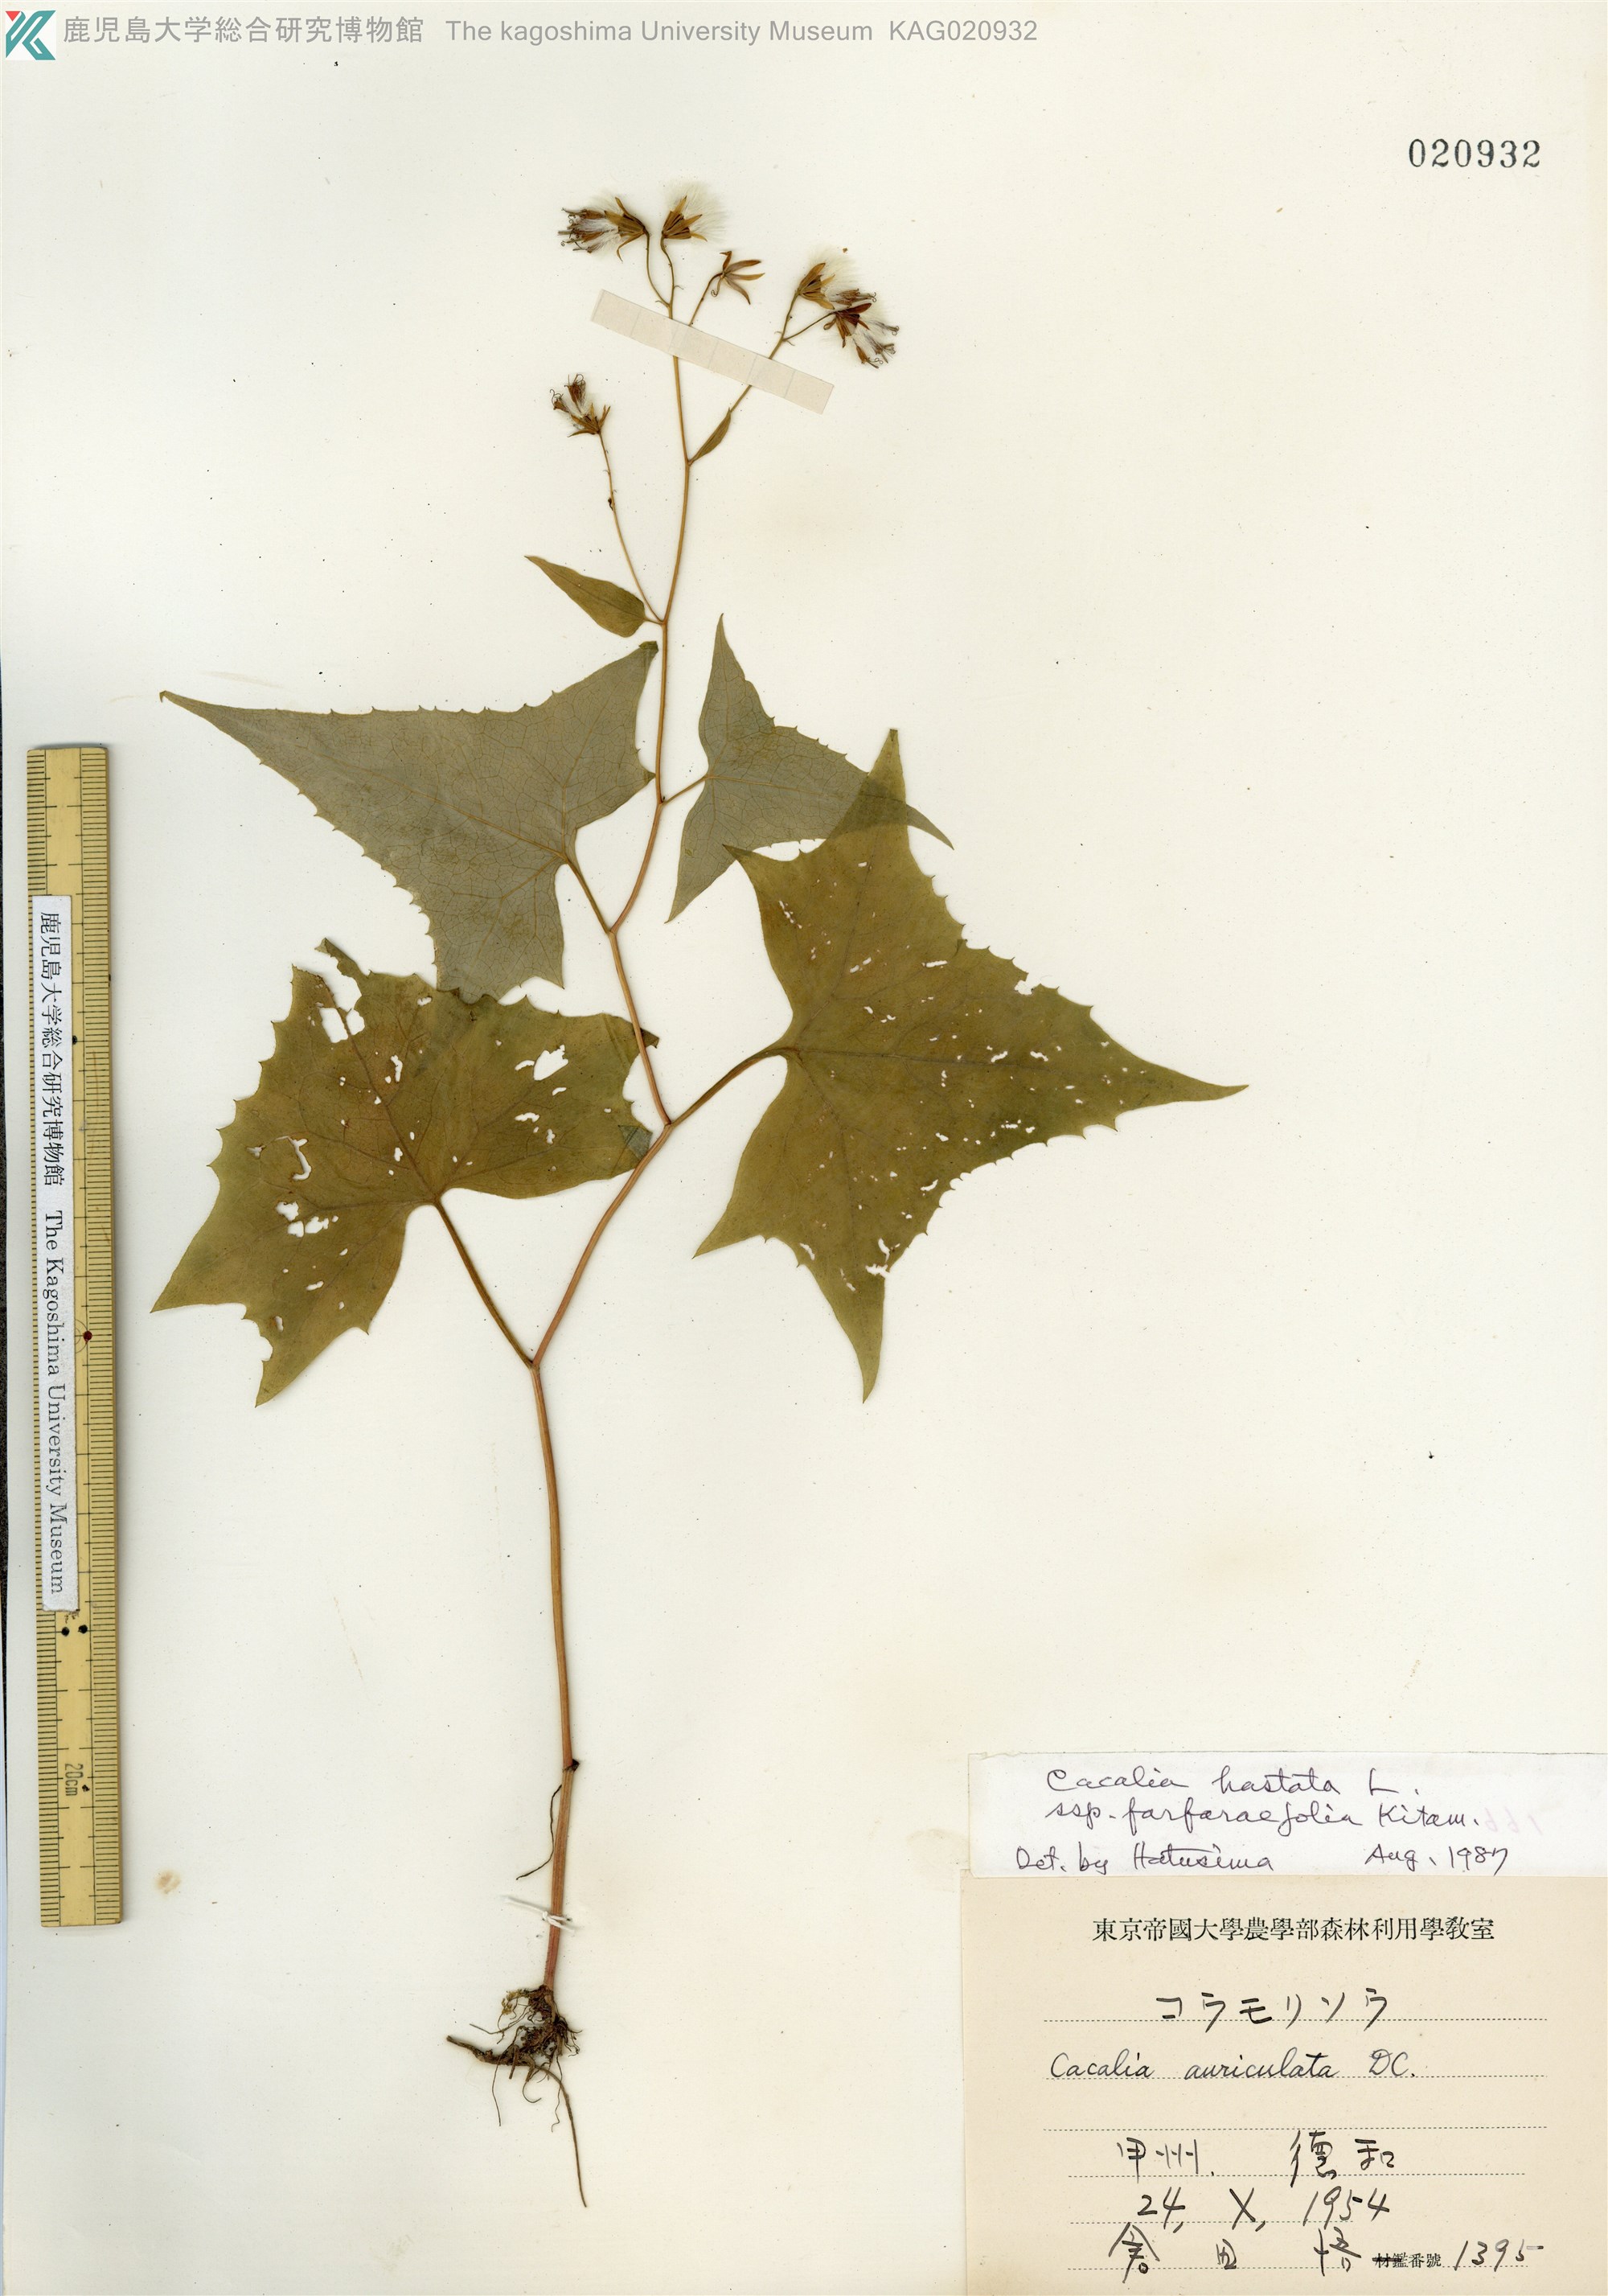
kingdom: Plantae
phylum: Tracheophyta
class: Magnoliopsida
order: Asterales
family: Asteraceae
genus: Parasenecio
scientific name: Parasenecio maximowicziana
